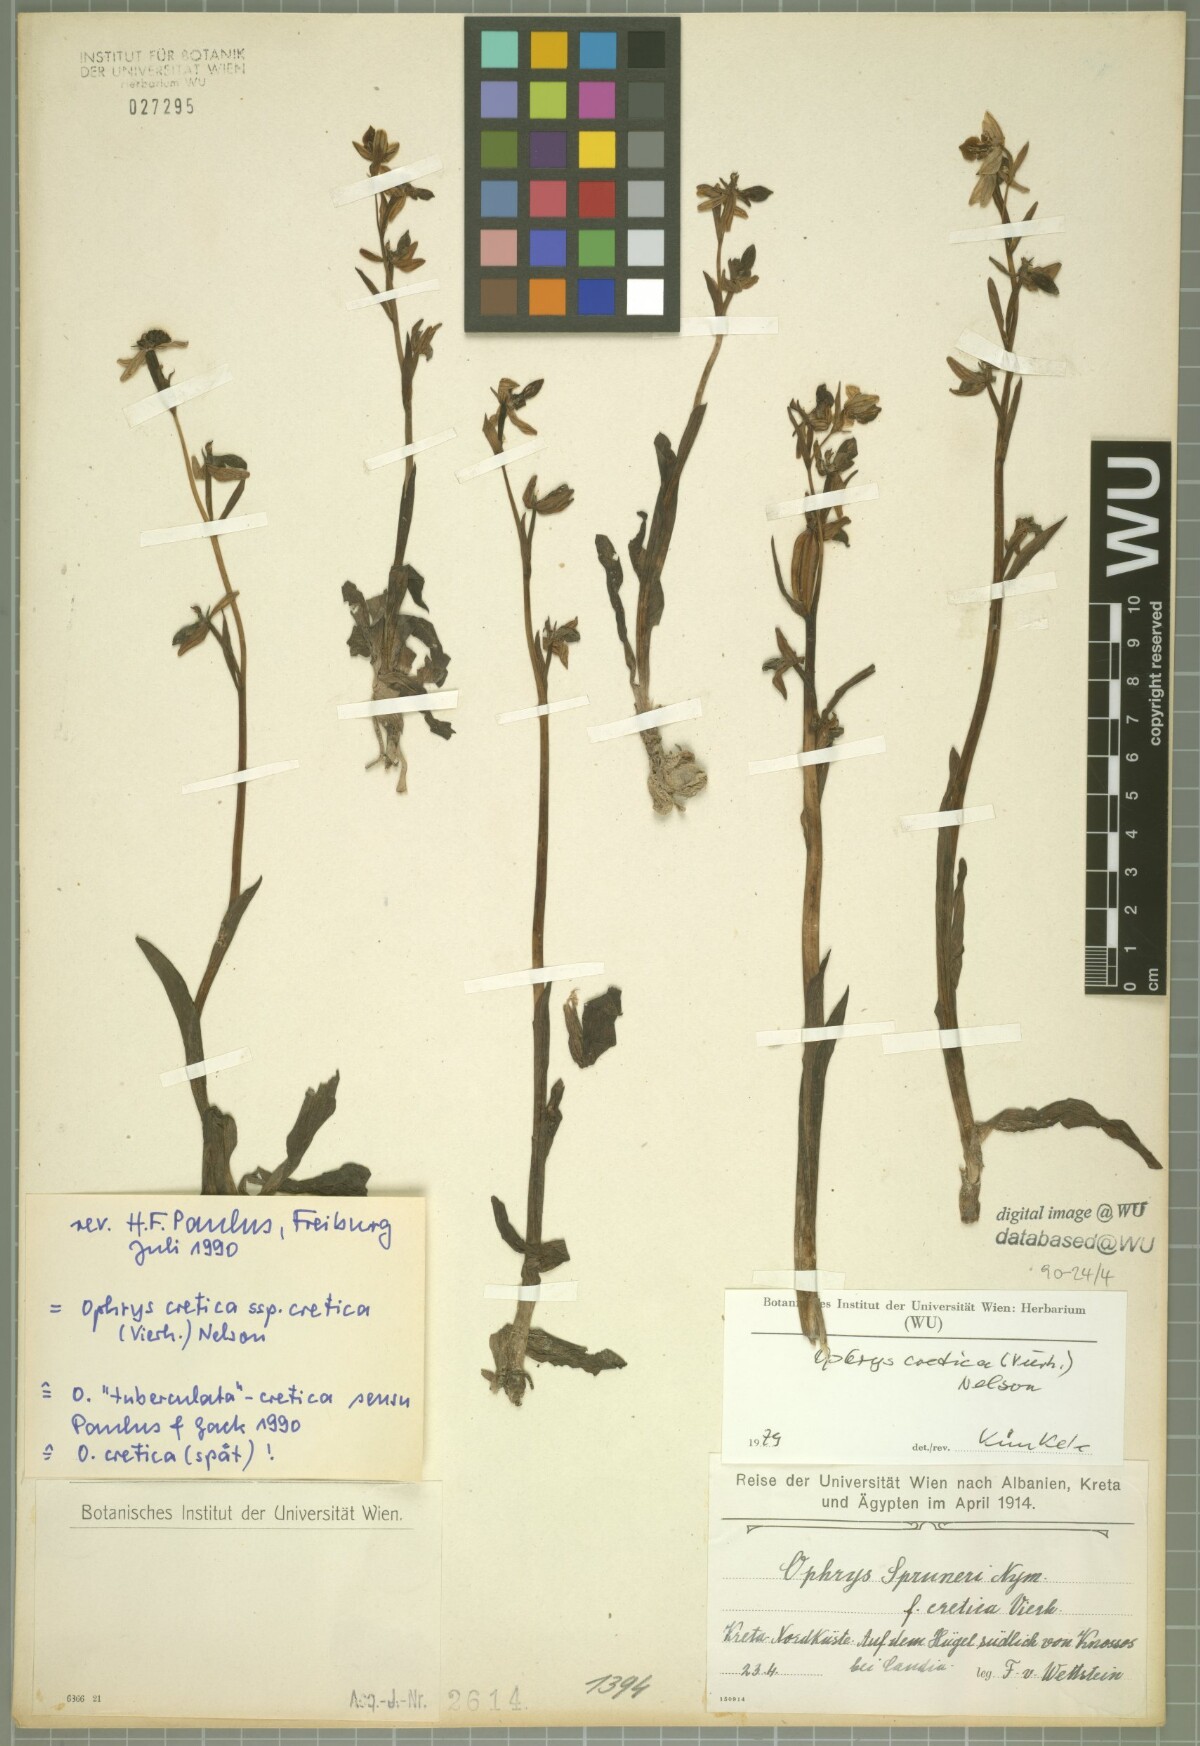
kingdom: Plantae
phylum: Tracheophyta
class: Liliopsida
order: Asparagales
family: Orchidaceae
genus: Ophrys
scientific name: Ophrys cretica
